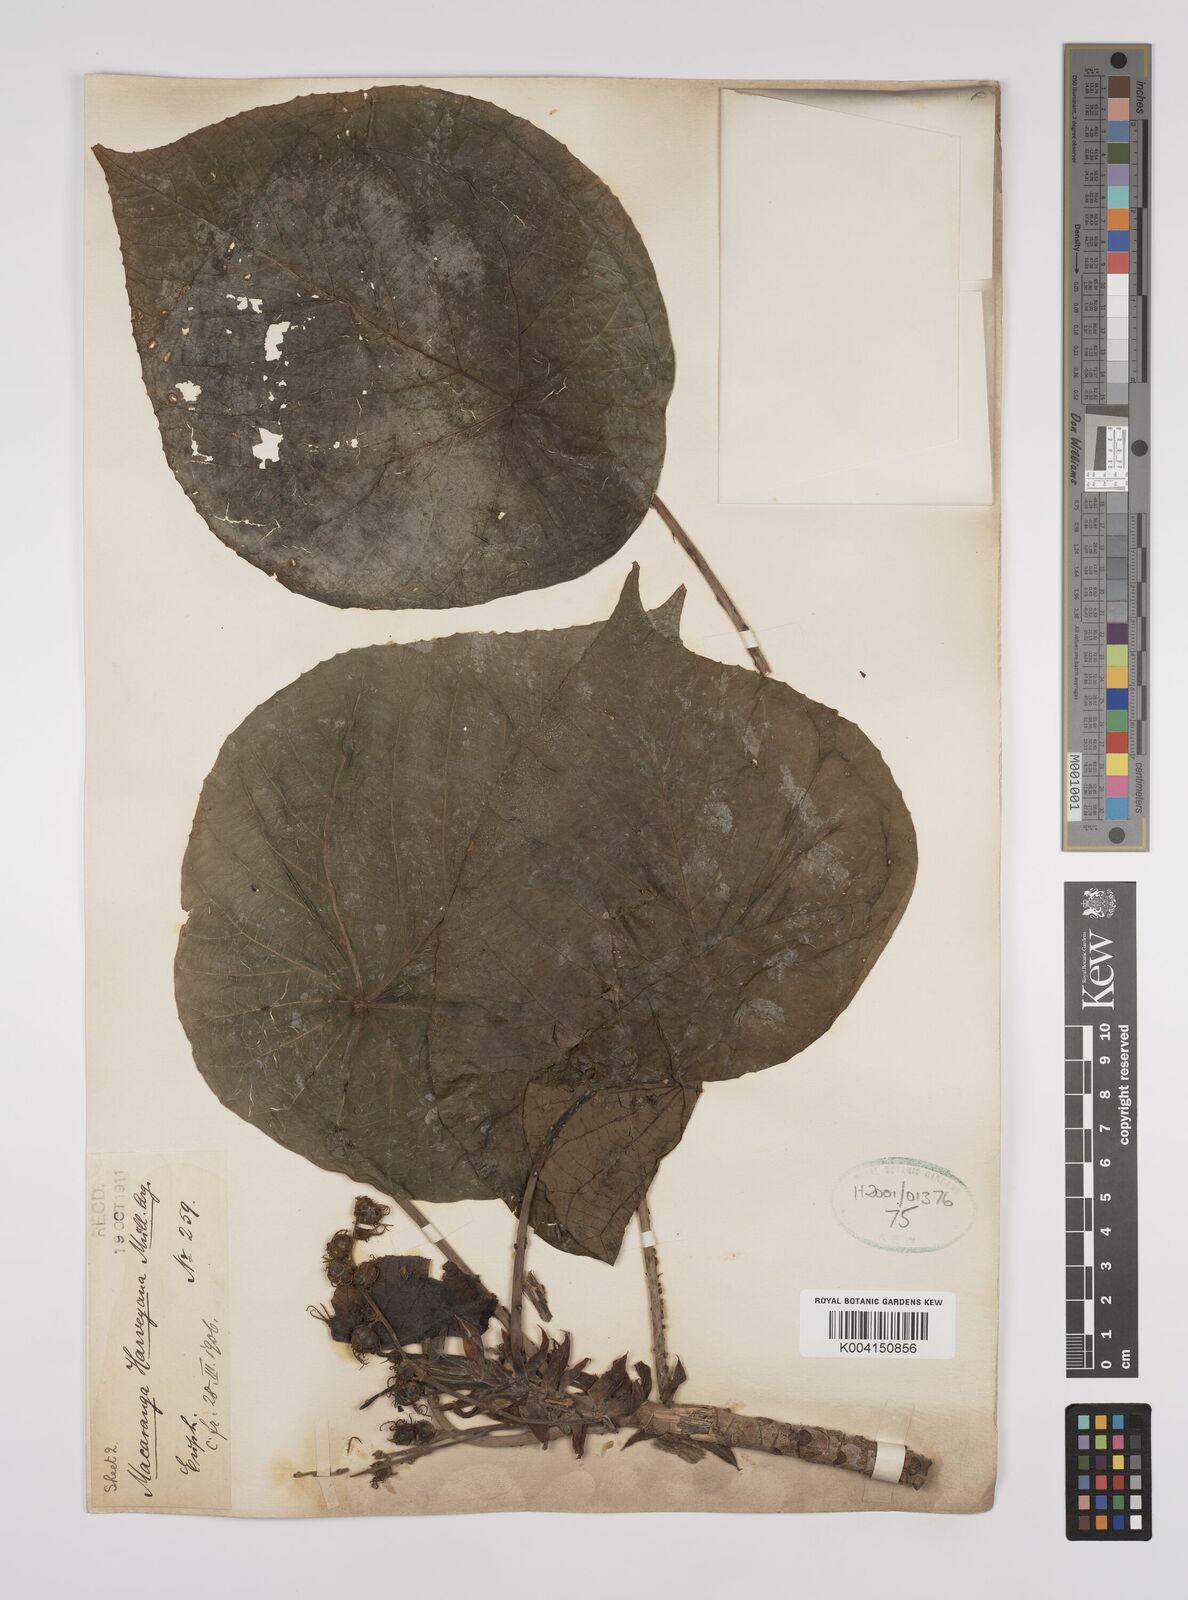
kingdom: Plantae
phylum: Tracheophyta
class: Magnoliopsida
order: Malpighiales
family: Euphorbiaceae
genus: Macaranga
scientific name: Macaranga harveyana
